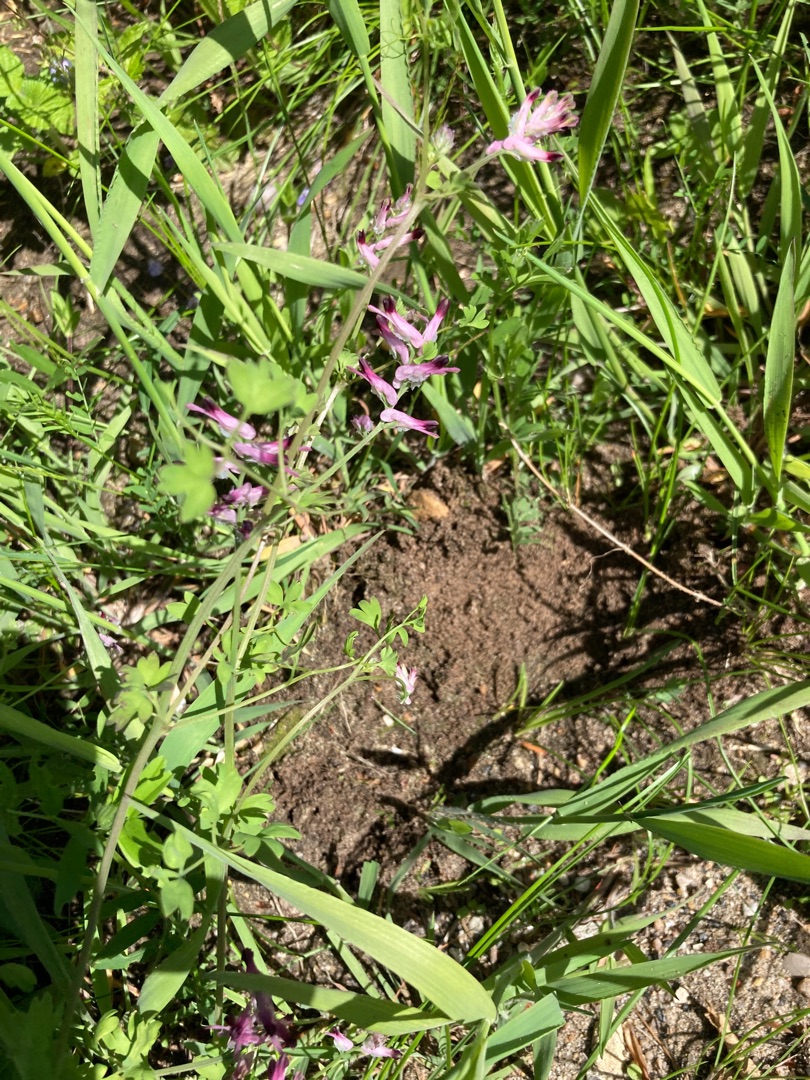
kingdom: Plantae
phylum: Tracheophyta
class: Magnoliopsida
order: Ranunculales
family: Papaveraceae
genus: Fumaria
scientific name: Fumaria muralis
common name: Mur-jordrøg
